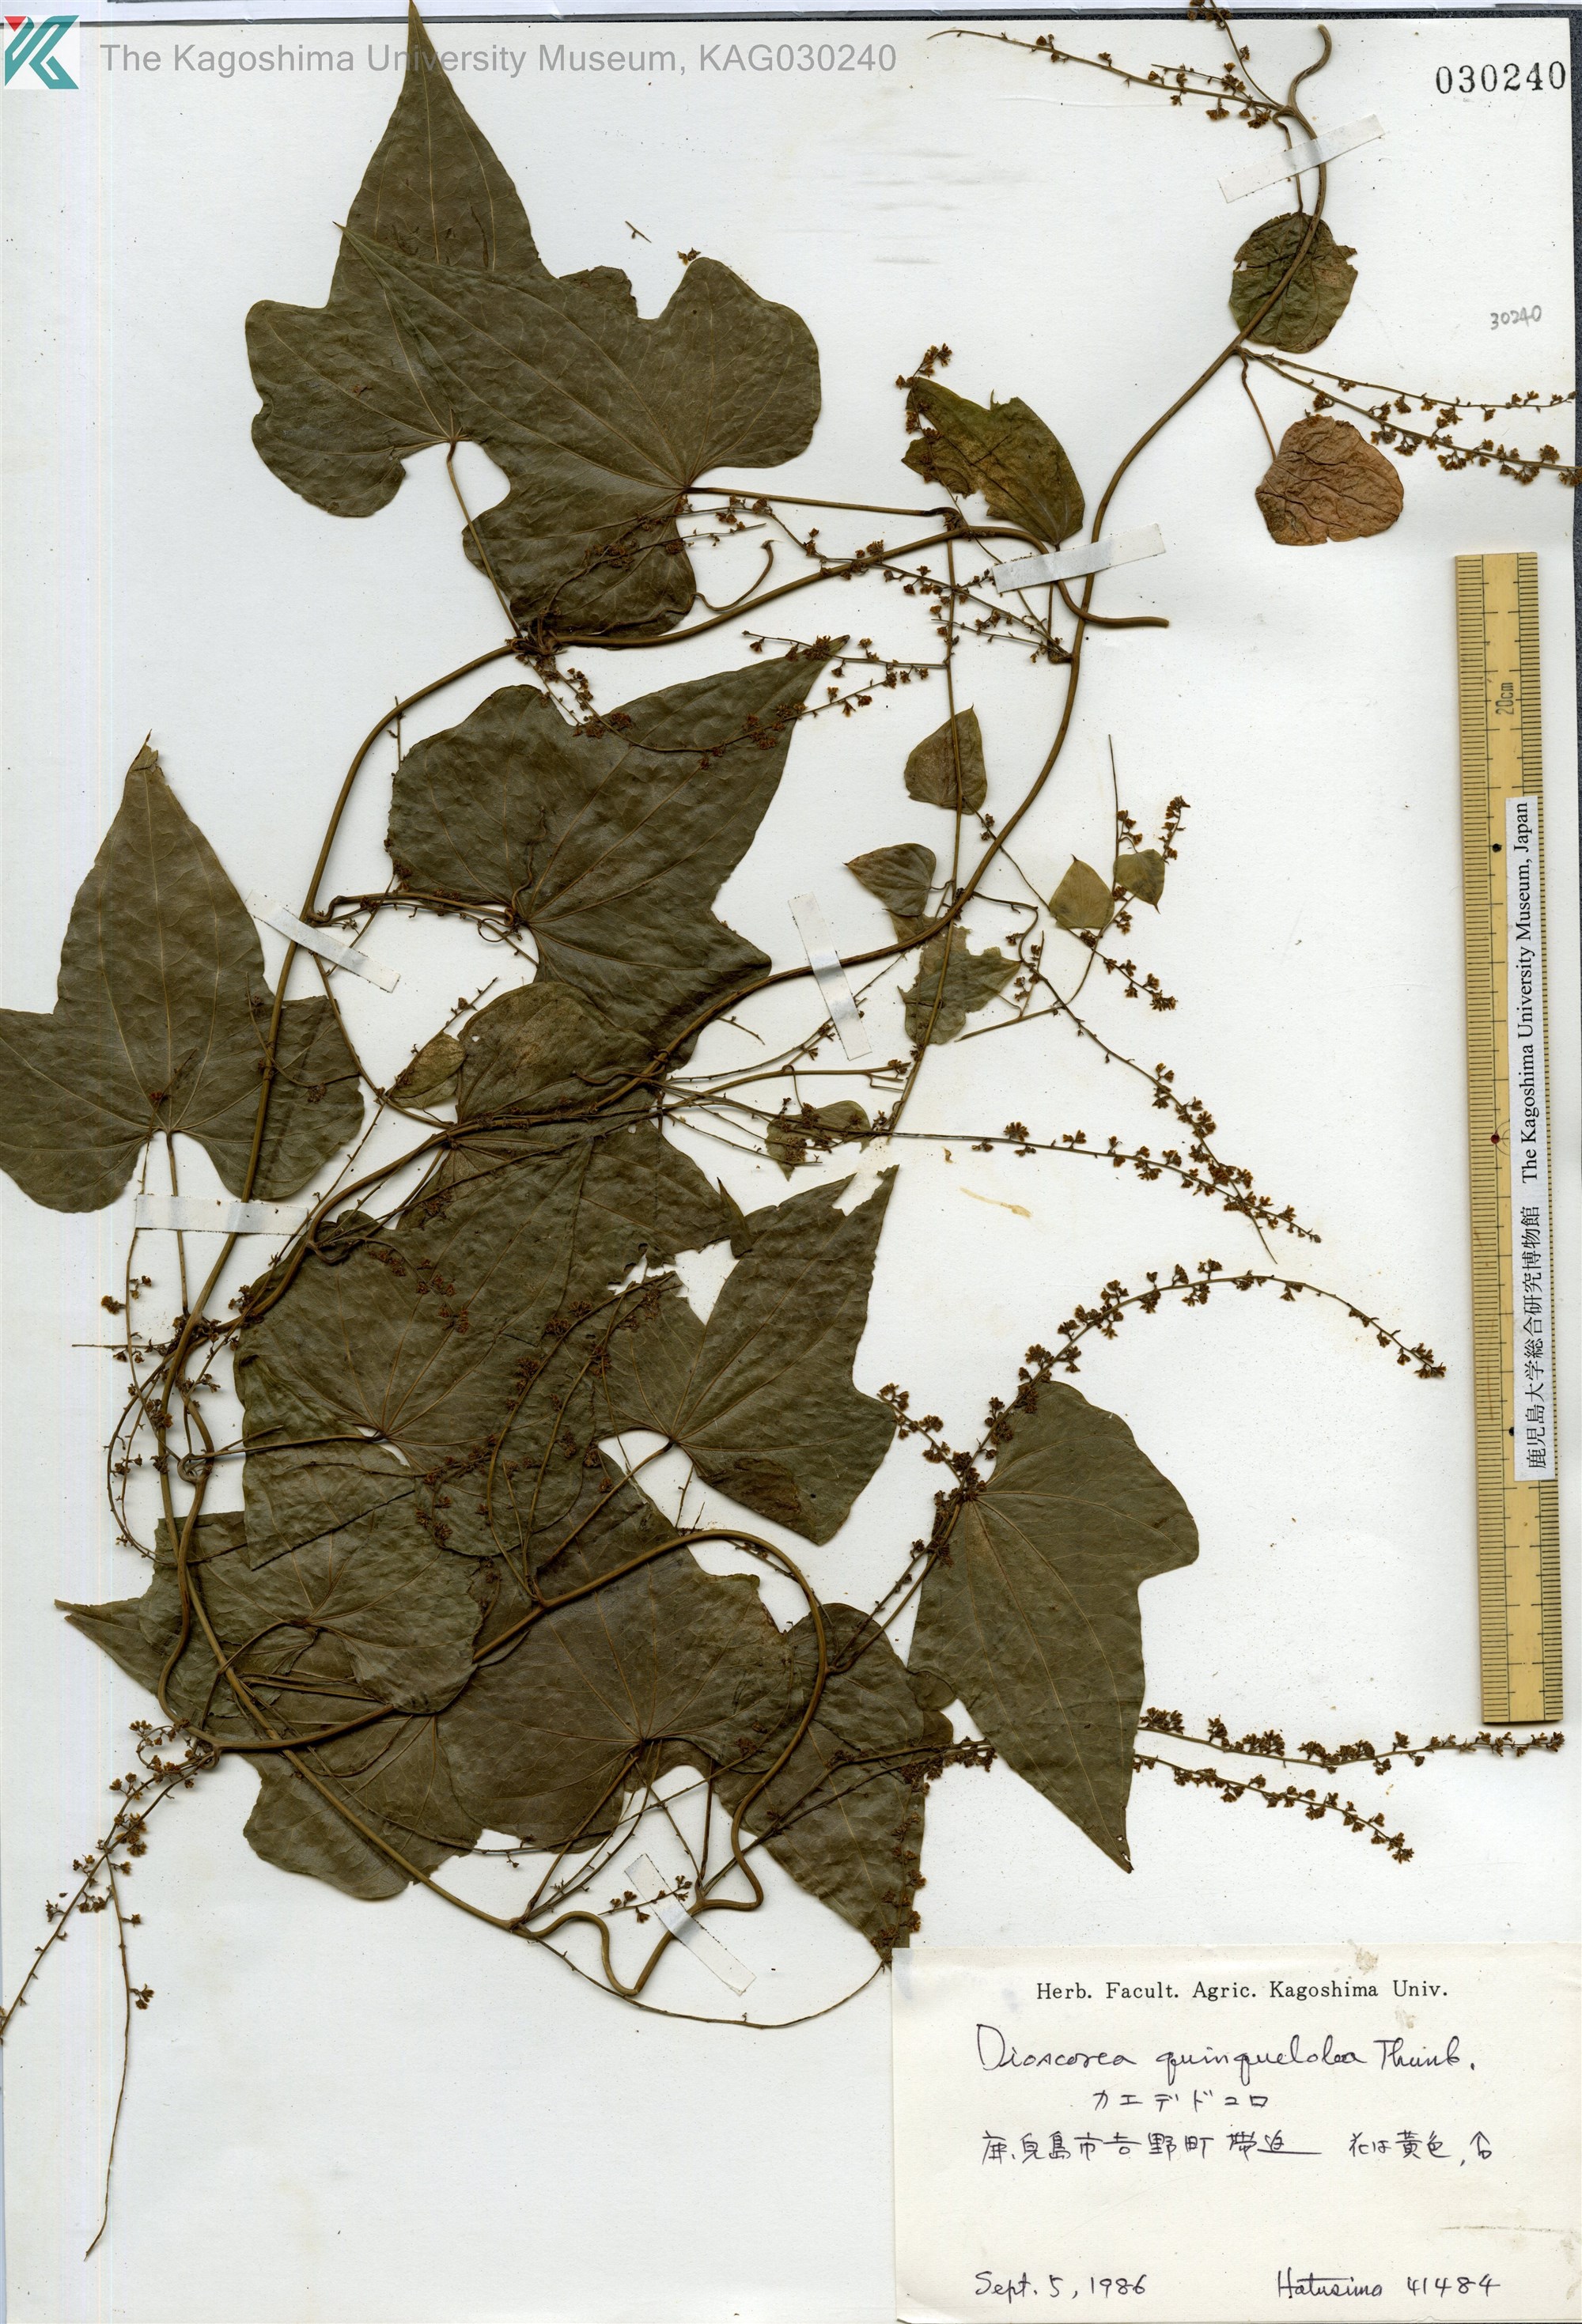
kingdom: Plantae
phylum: Tracheophyta
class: Liliopsida
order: Dioscoreales
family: Dioscoreaceae
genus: Dioscorea
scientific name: Dioscorea quinquelobata
